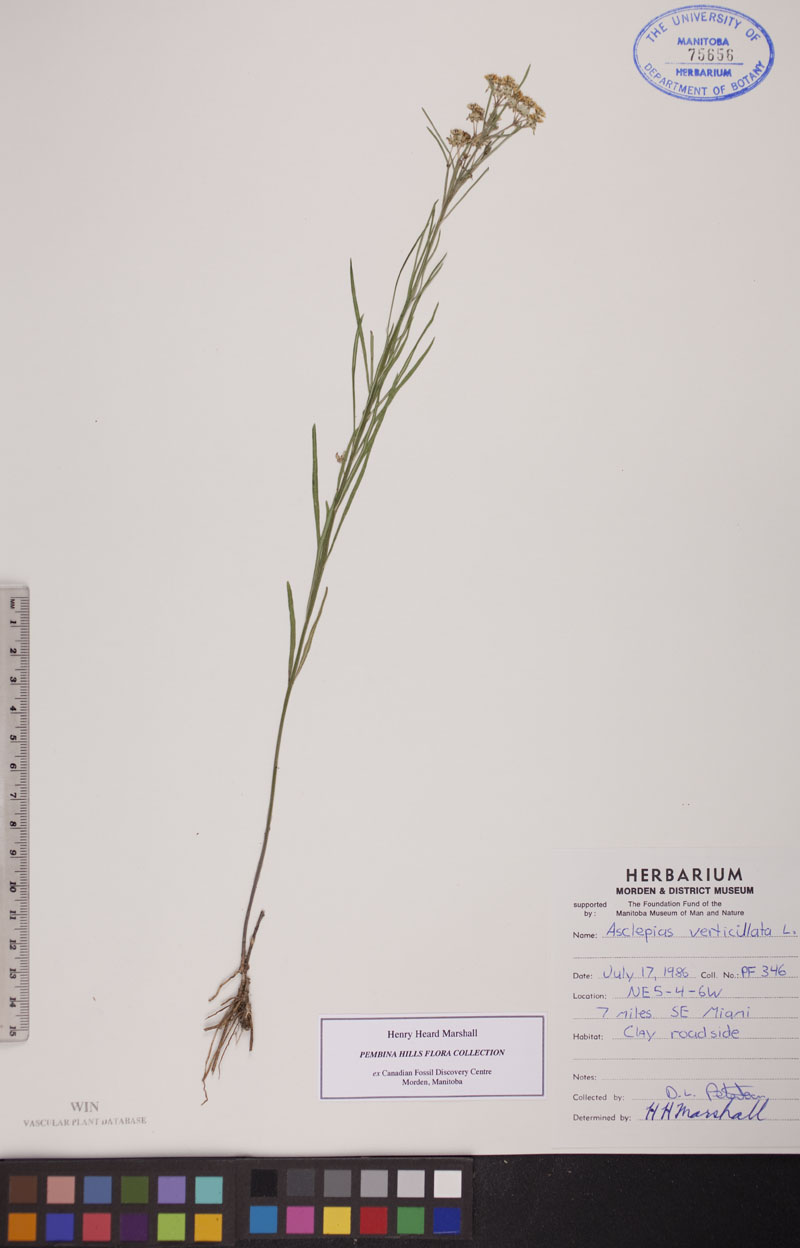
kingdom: Plantae
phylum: Tracheophyta
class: Magnoliopsida
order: Gentianales
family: Apocynaceae
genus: Asclepias
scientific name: Asclepias verticillata
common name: Eastern whorled milkweed
